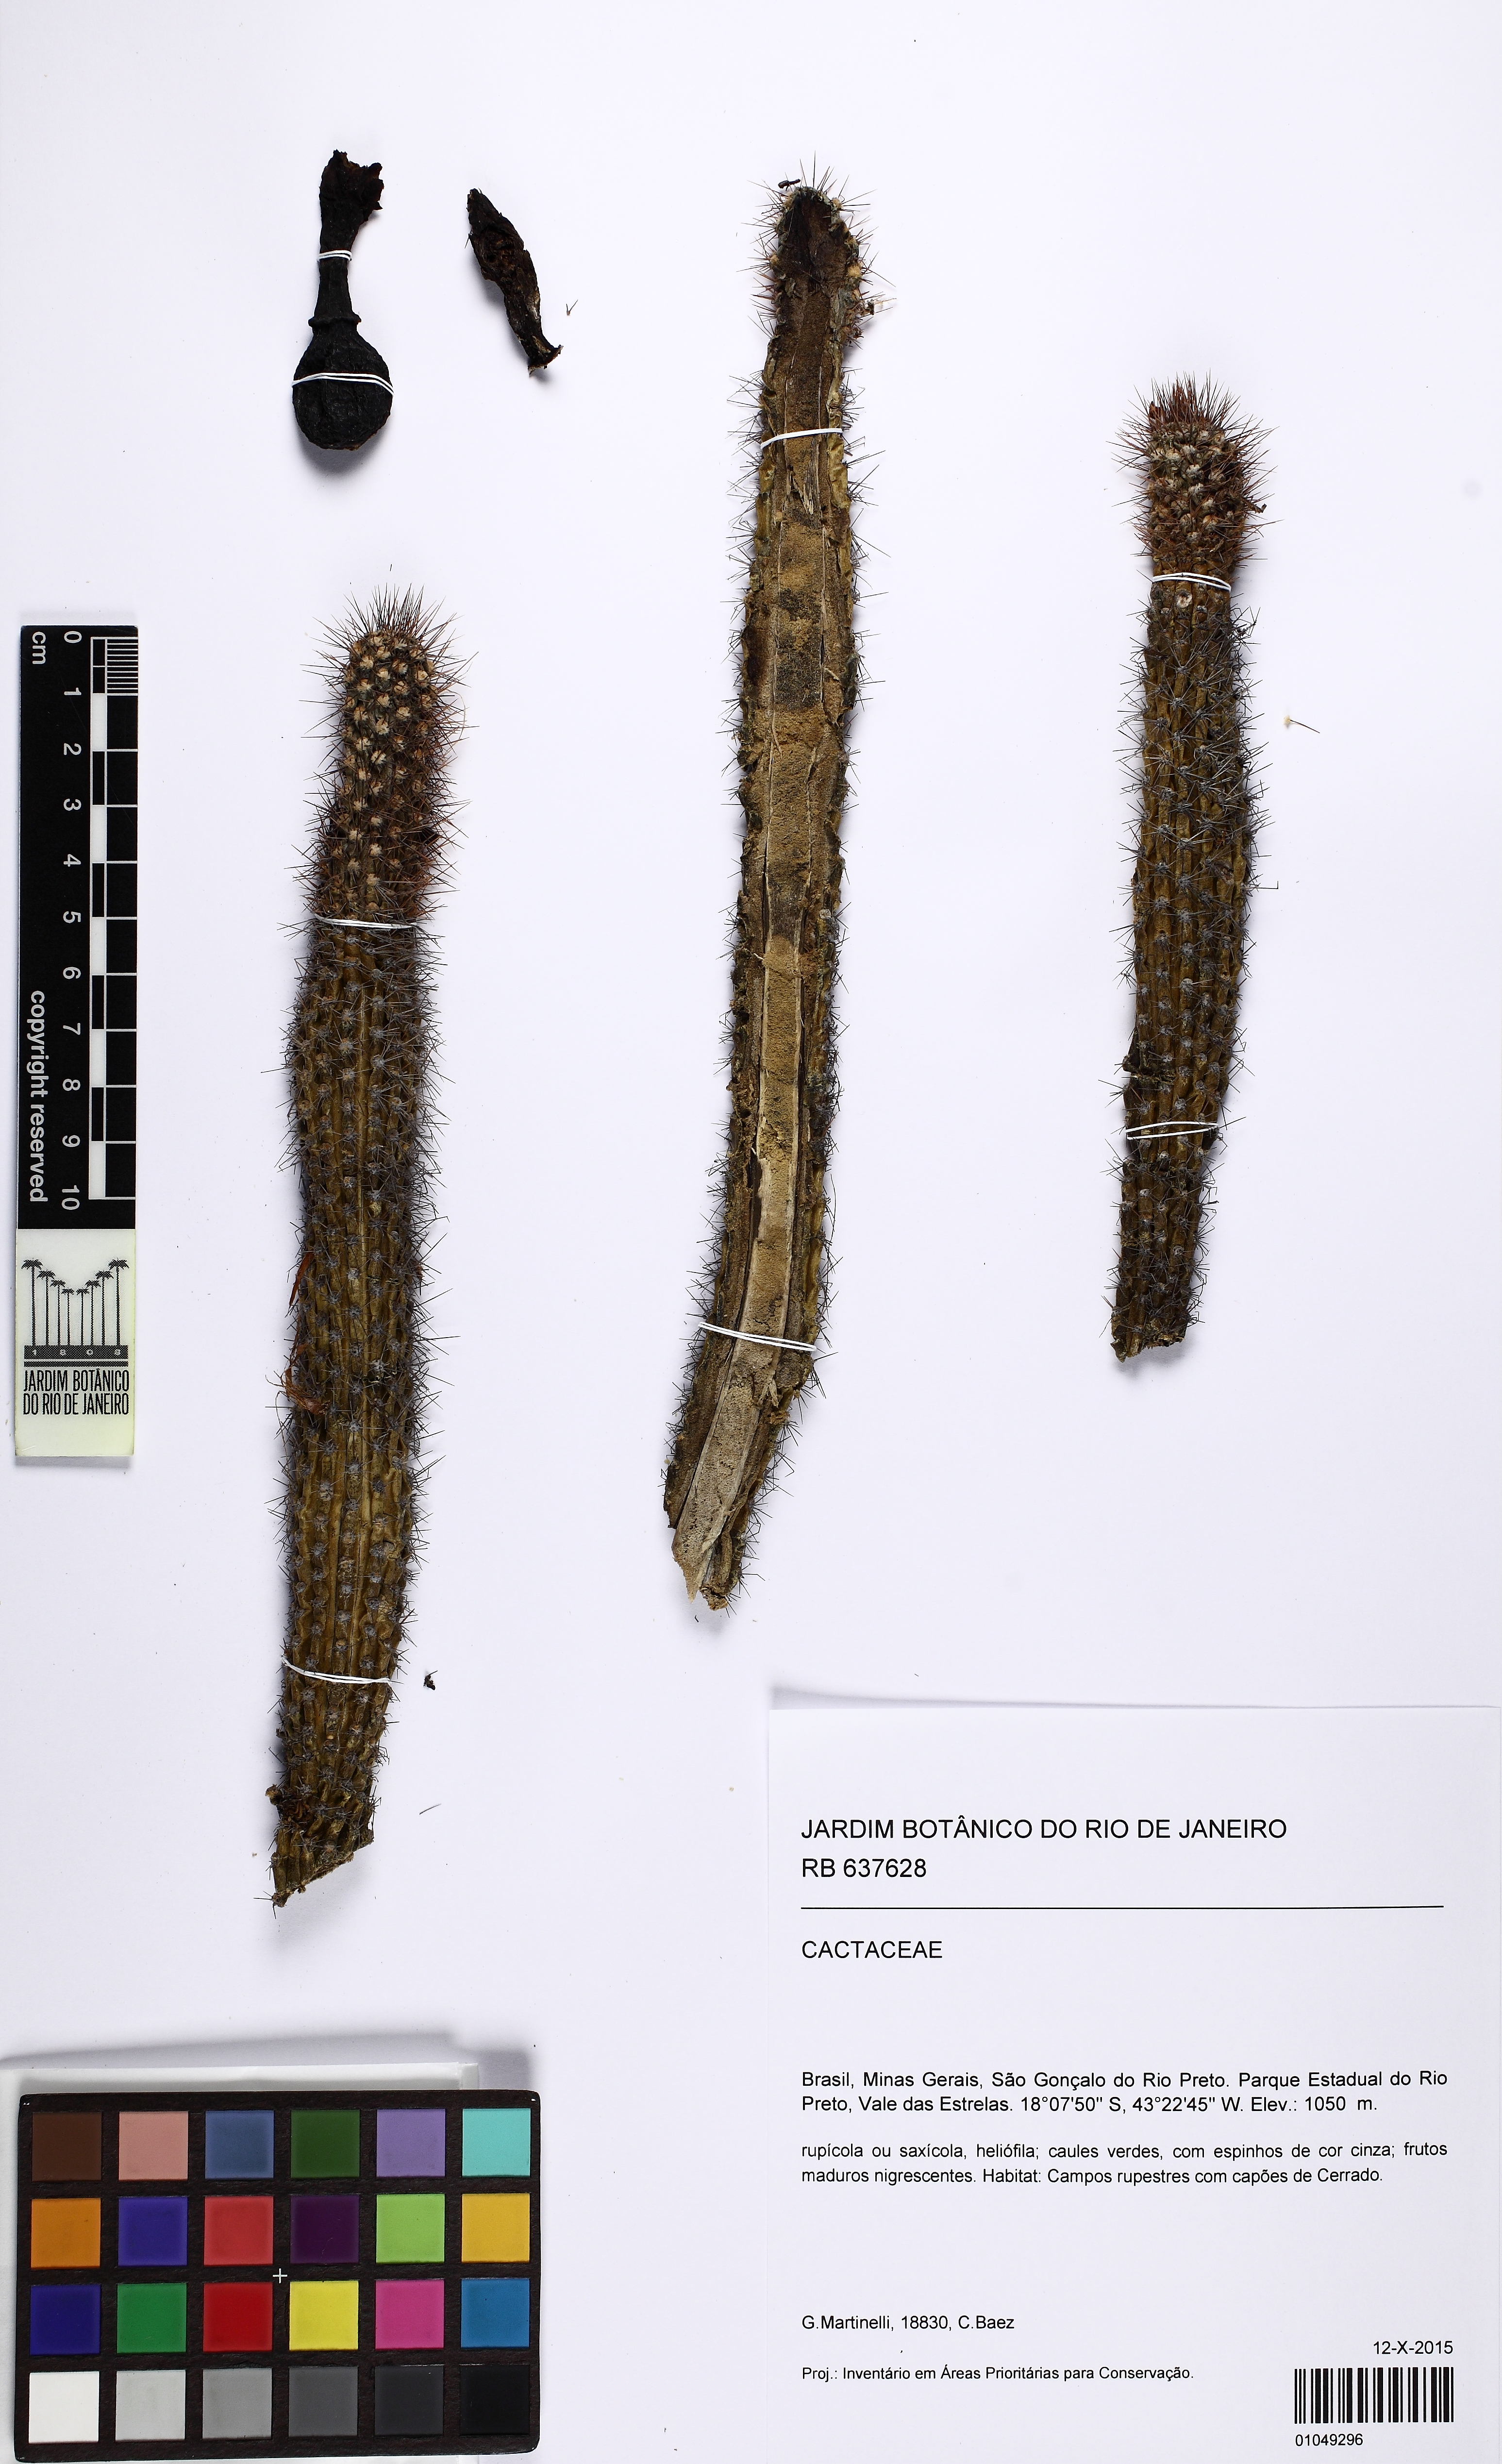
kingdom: Plantae
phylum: Tracheophyta
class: Magnoliopsida
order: Caryophyllales
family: Cactaceae
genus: Cipocereus
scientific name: Cipocereus minensis
